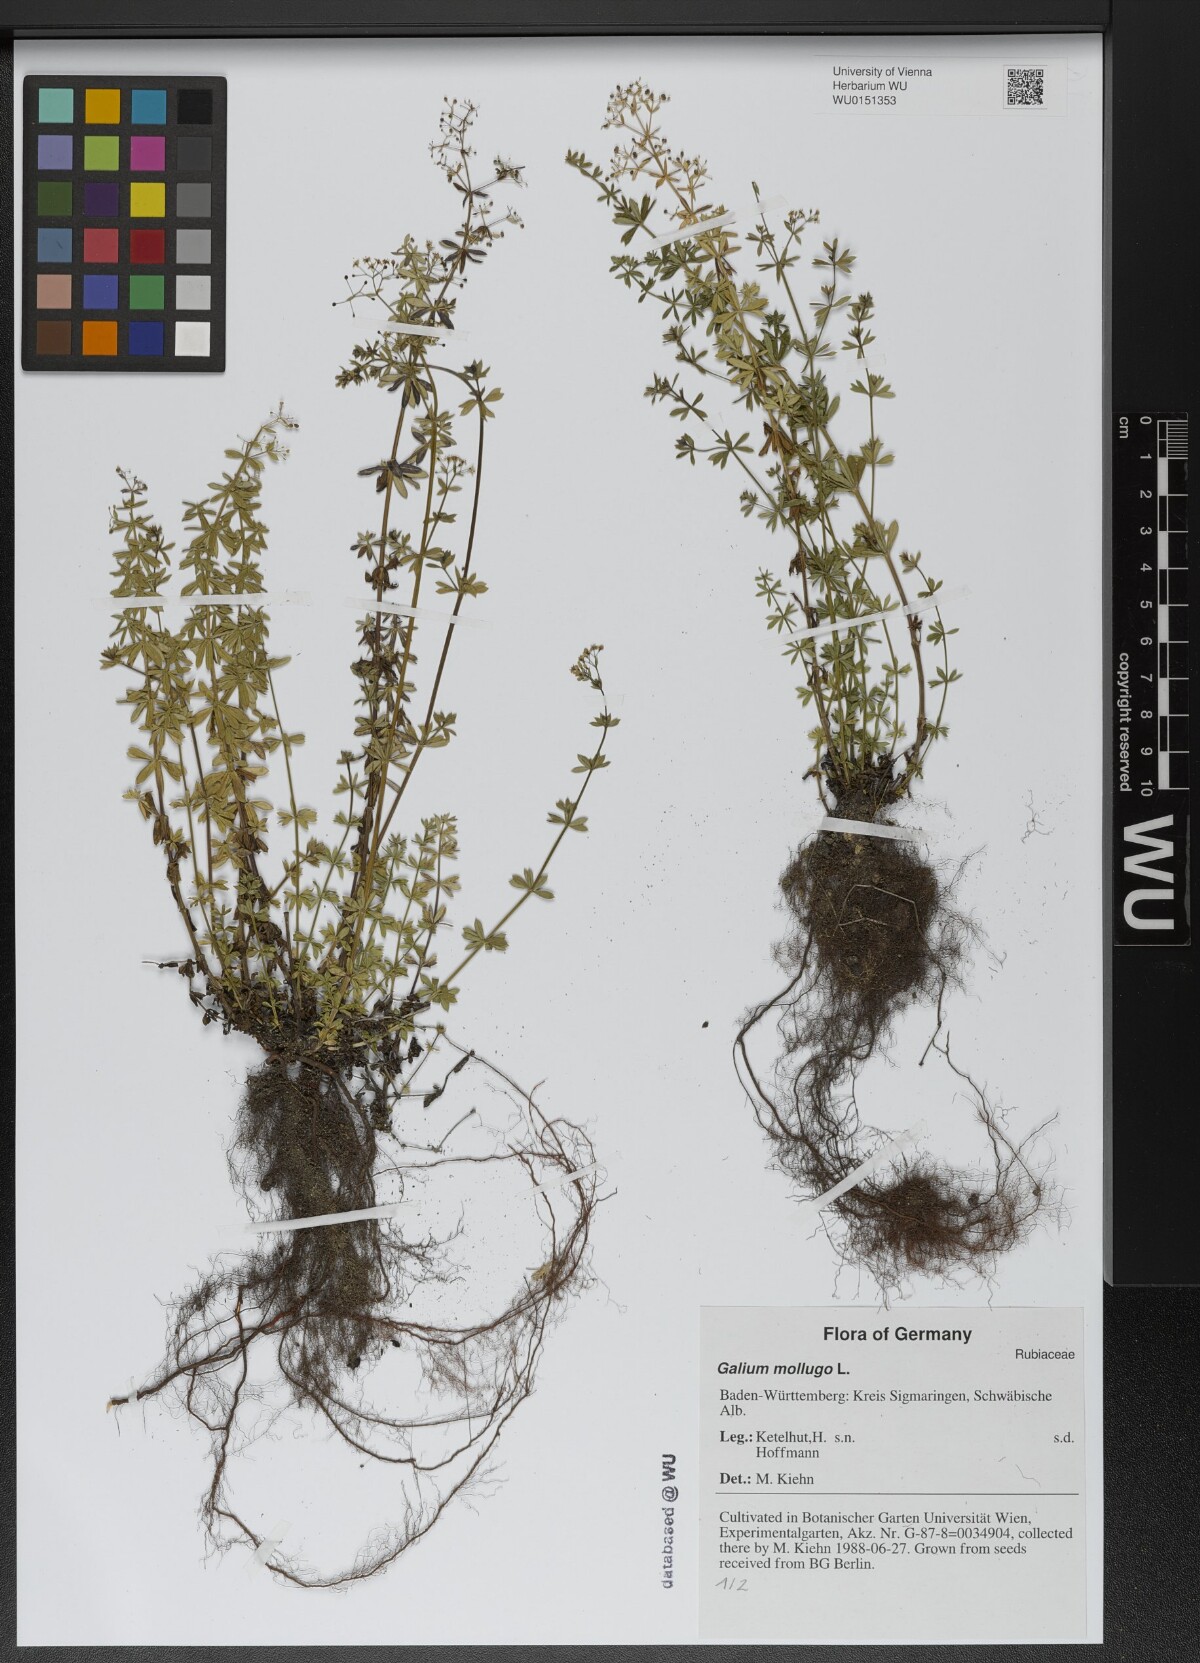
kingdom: Plantae
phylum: Tracheophyta
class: Magnoliopsida
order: Gentianales
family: Rubiaceae
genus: Galium
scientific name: Galium mollugo
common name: Hedge bedstraw
